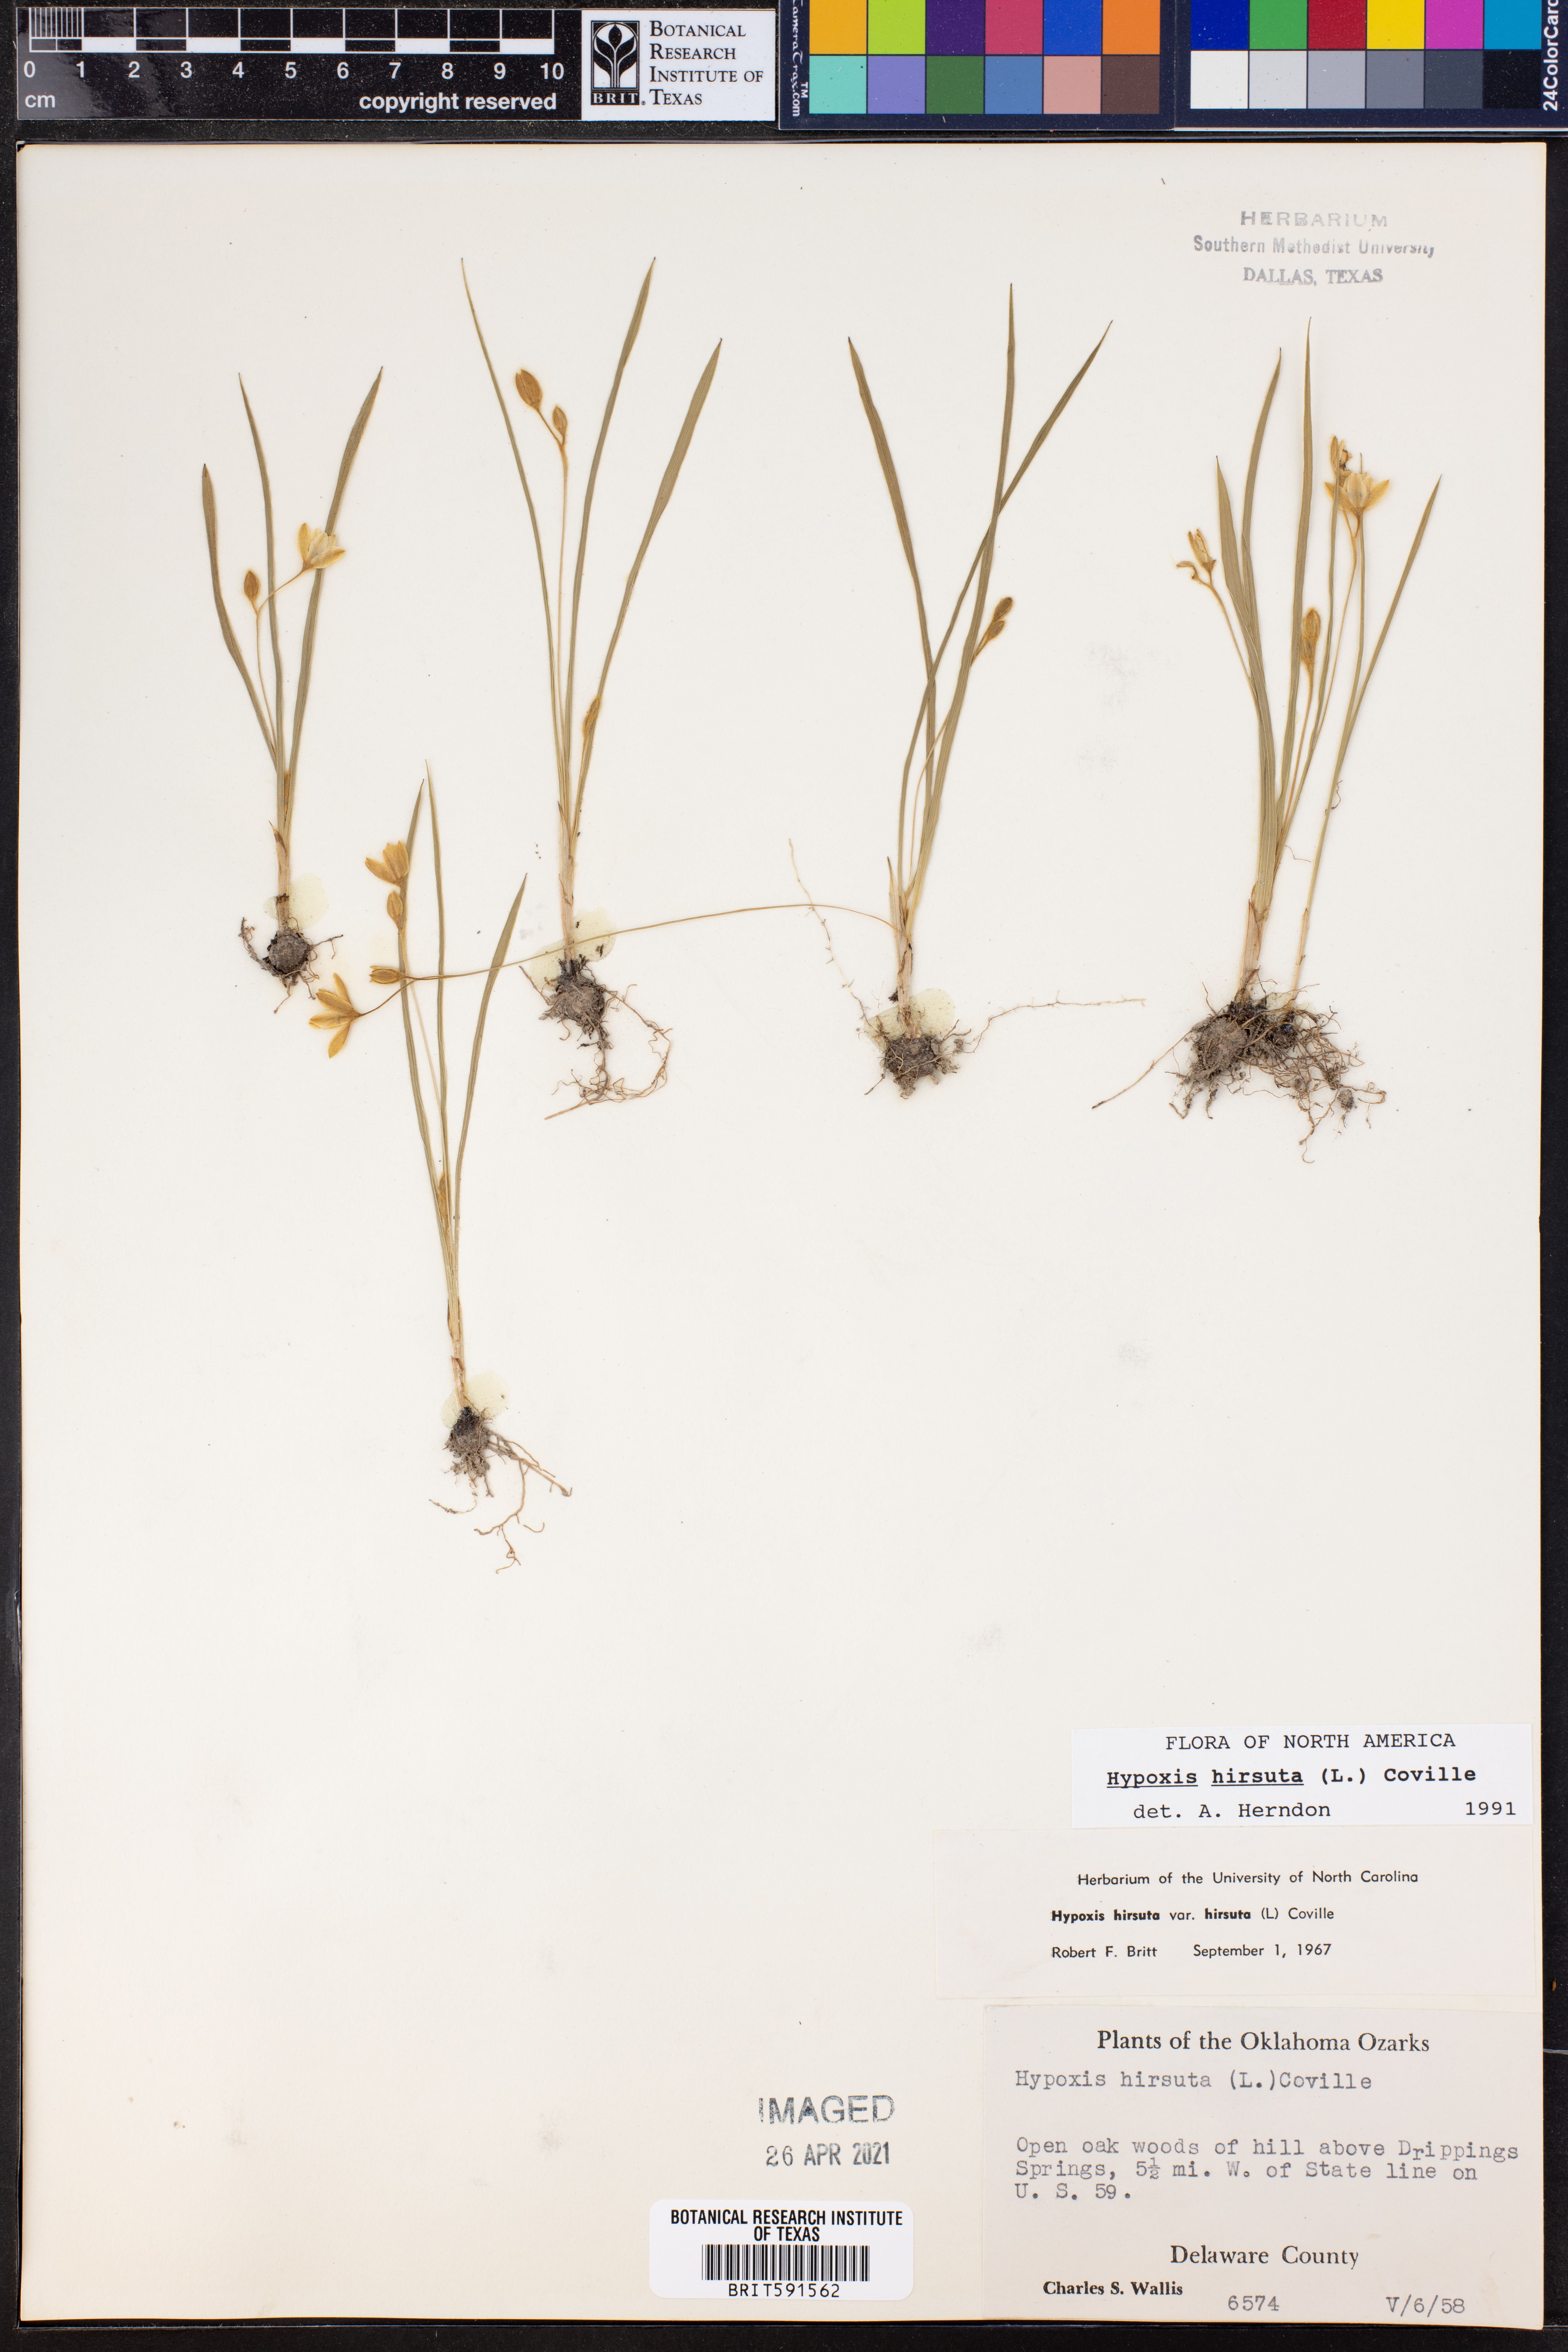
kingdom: Plantae
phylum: Tracheophyta
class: Liliopsida
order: Asparagales
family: Hypoxidaceae
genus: Hypoxis
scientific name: Hypoxis hirsuta
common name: Common goldstar
